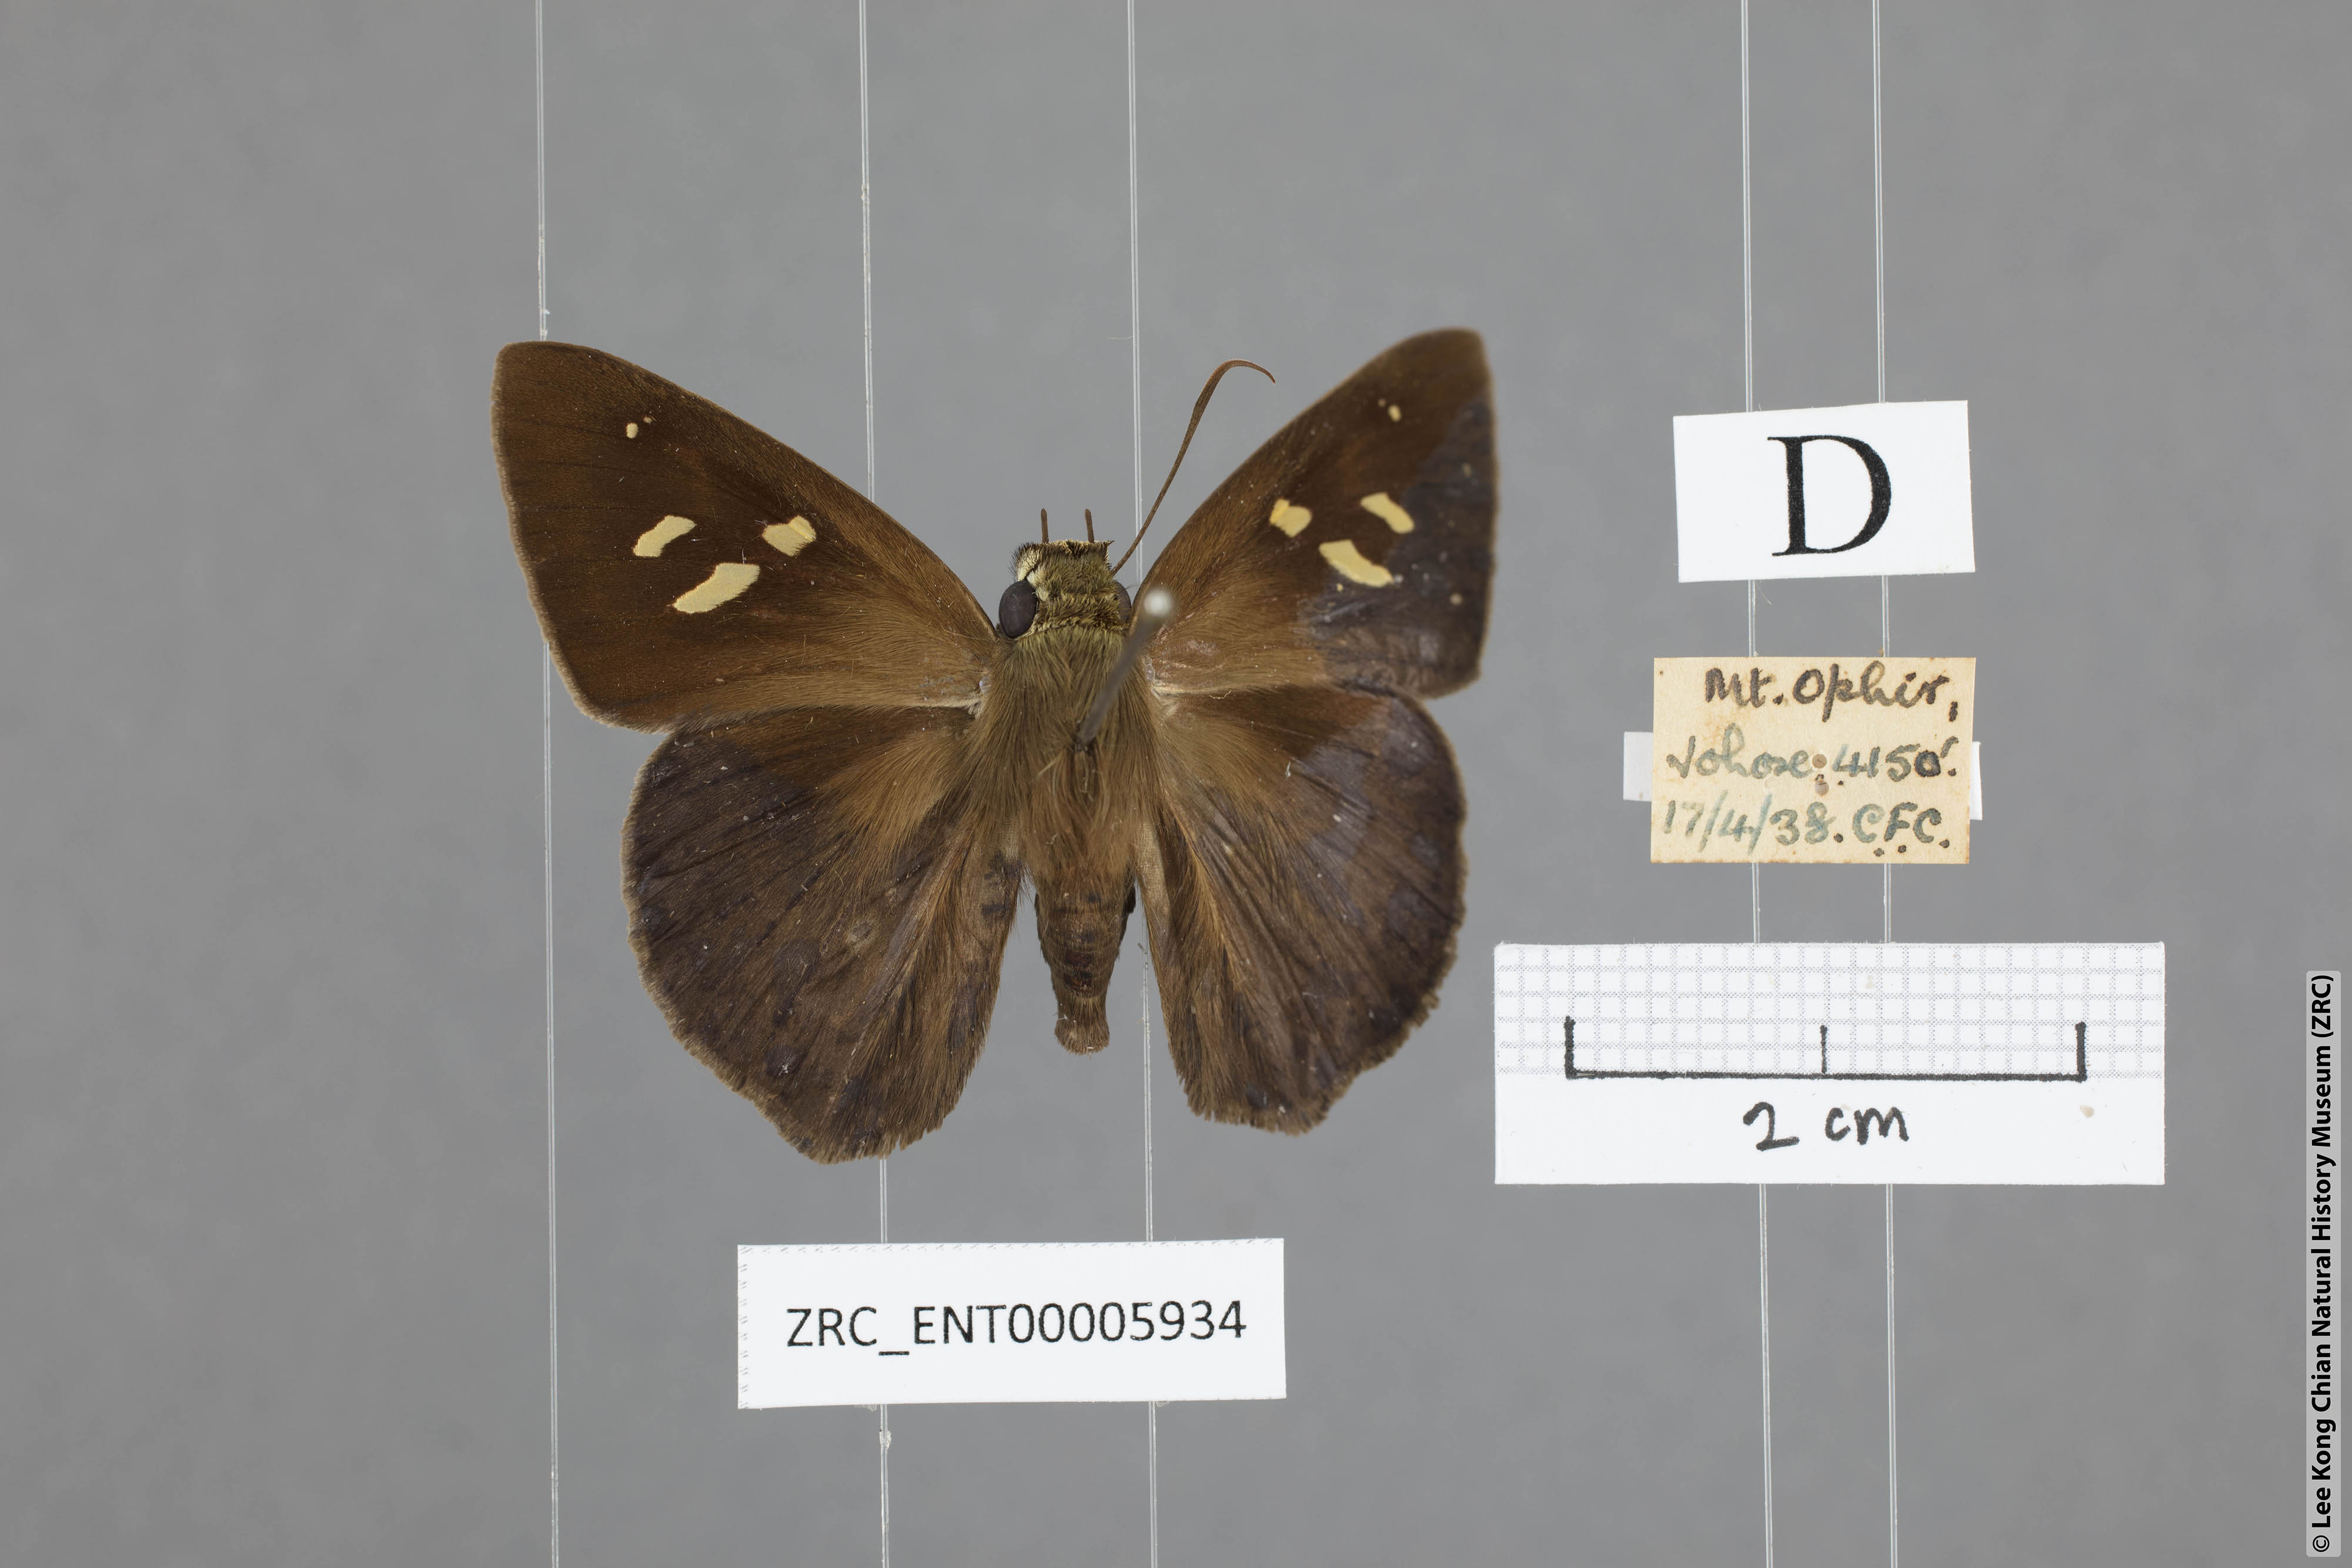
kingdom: Animalia
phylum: Arthropoda
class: Insecta
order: Lepidoptera
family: Hesperiidae
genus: Hasora
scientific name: Hasora zoma
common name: Dark banded awl
